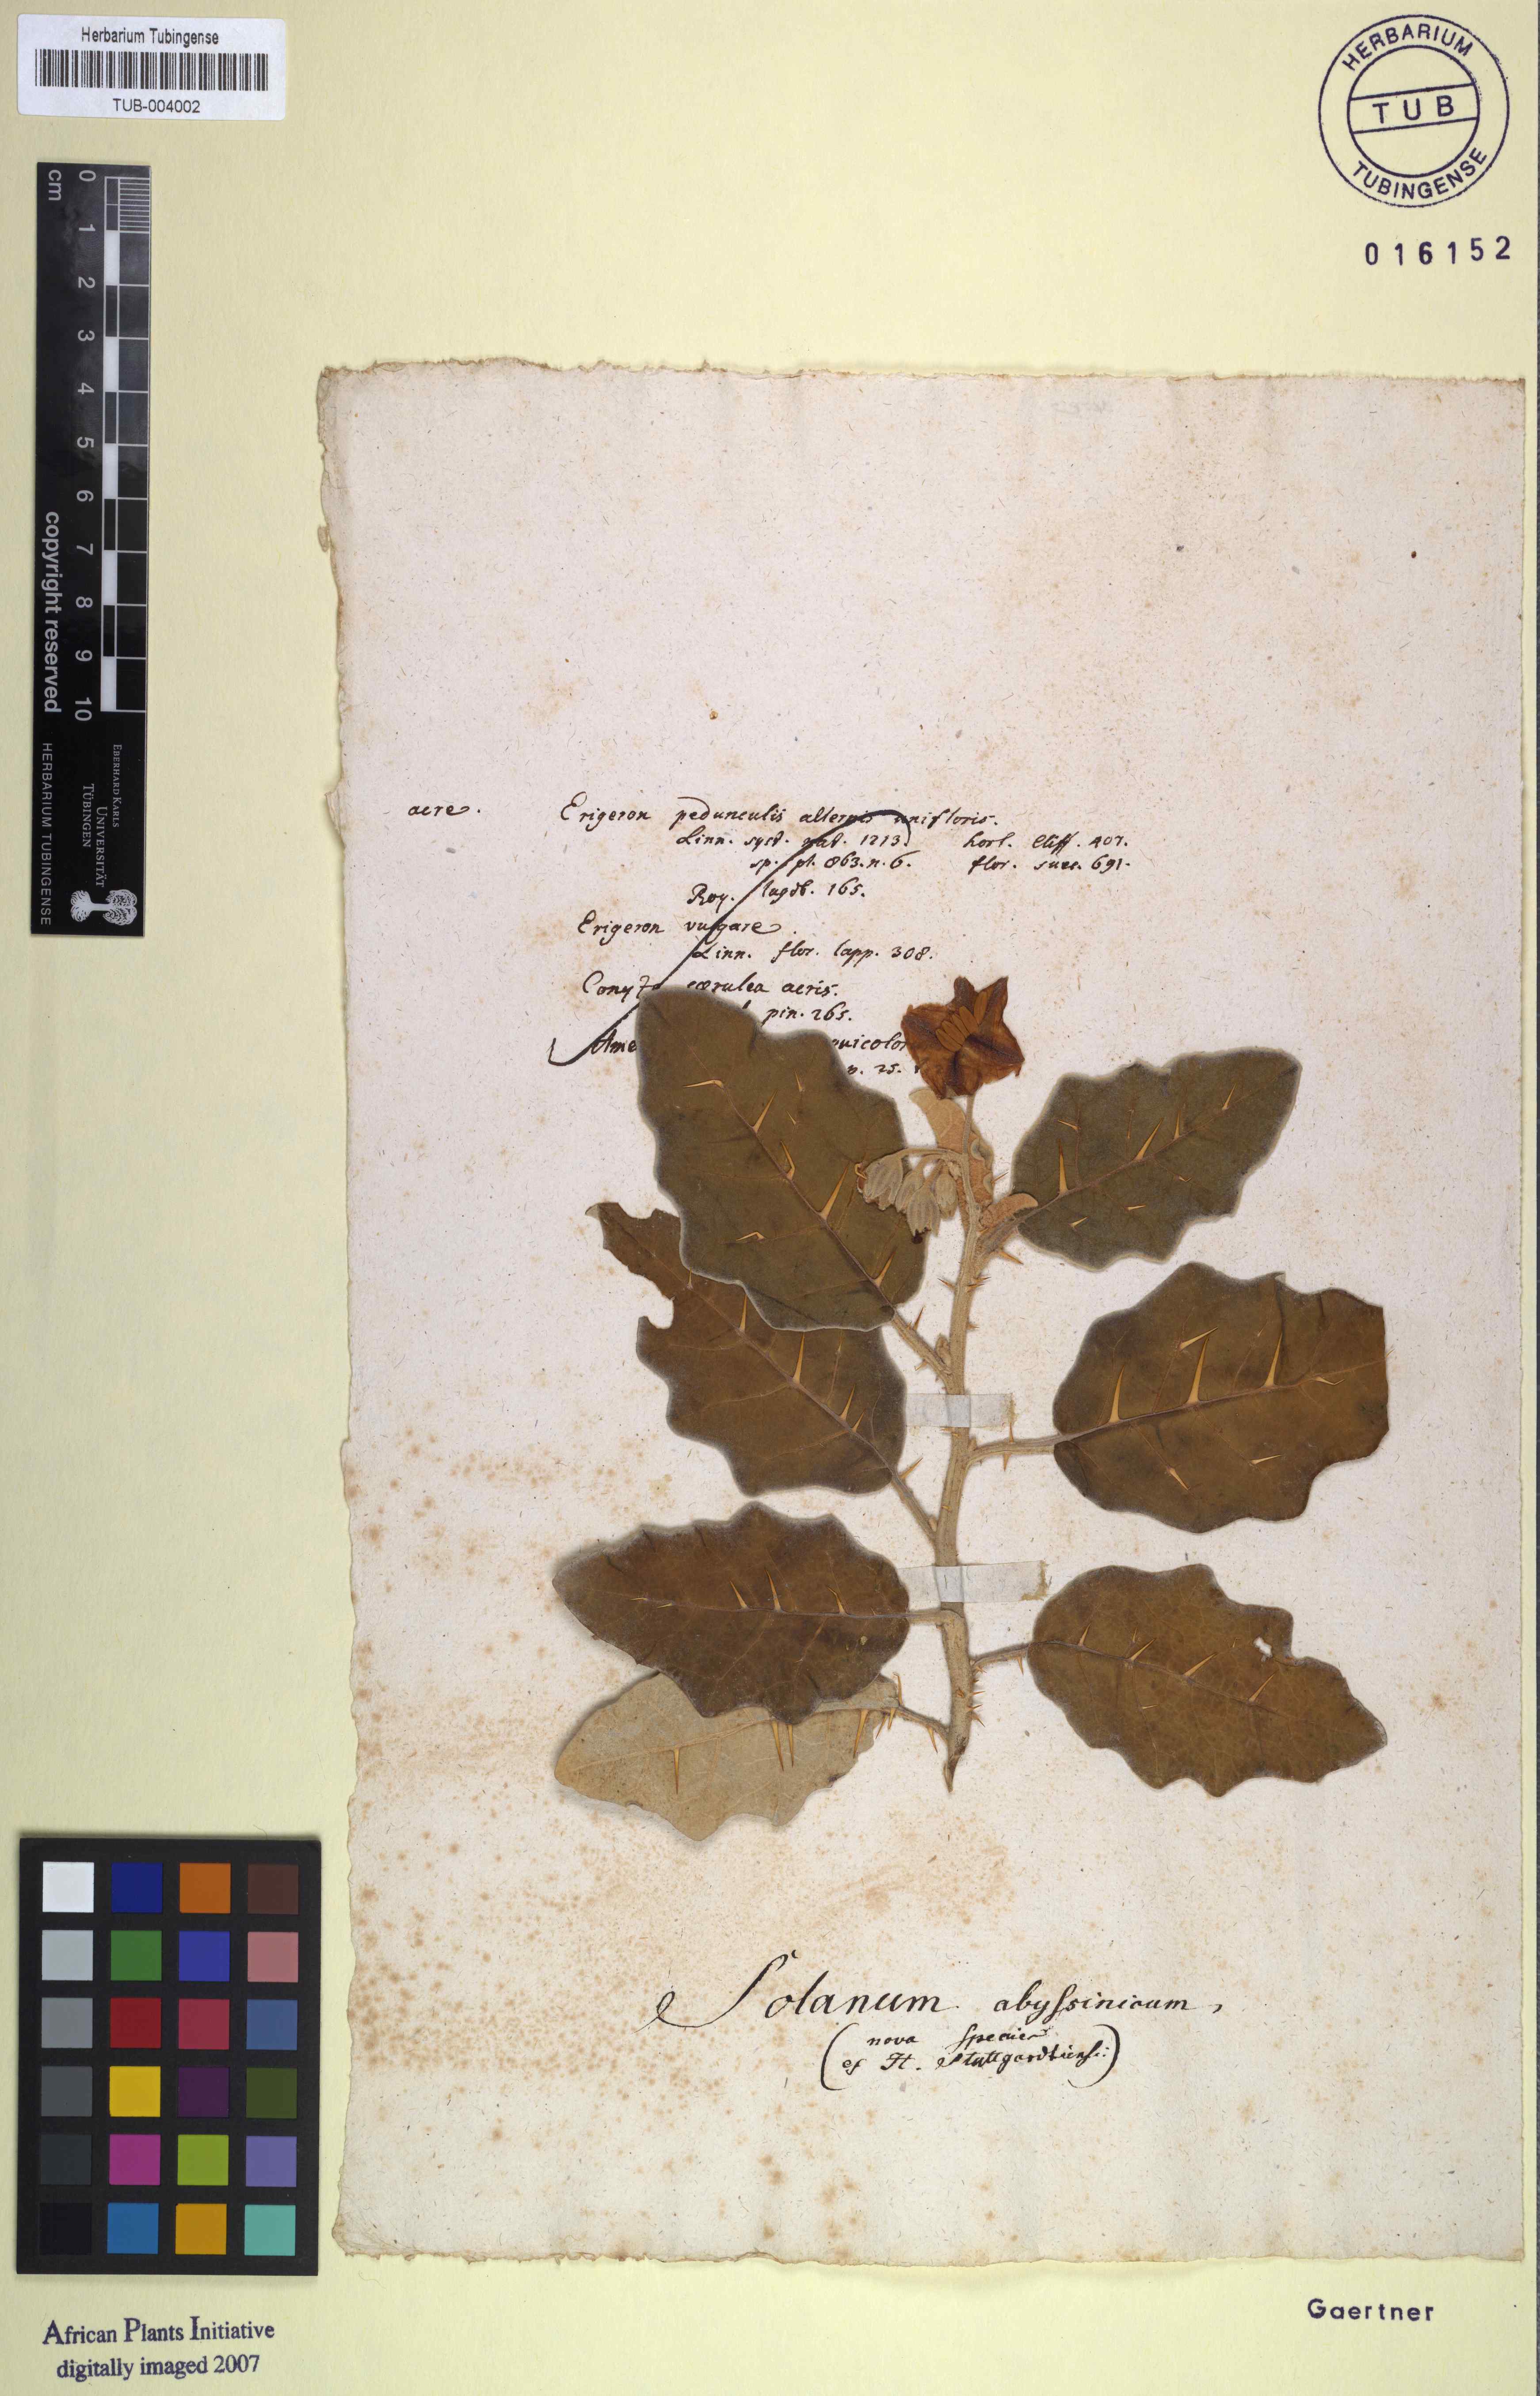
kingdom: Plantae
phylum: Tracheophyta
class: Magnoliopsida
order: Solanales
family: Solanaceae
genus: Solanum
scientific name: Solanum marginatum
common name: Purple african nightshade
